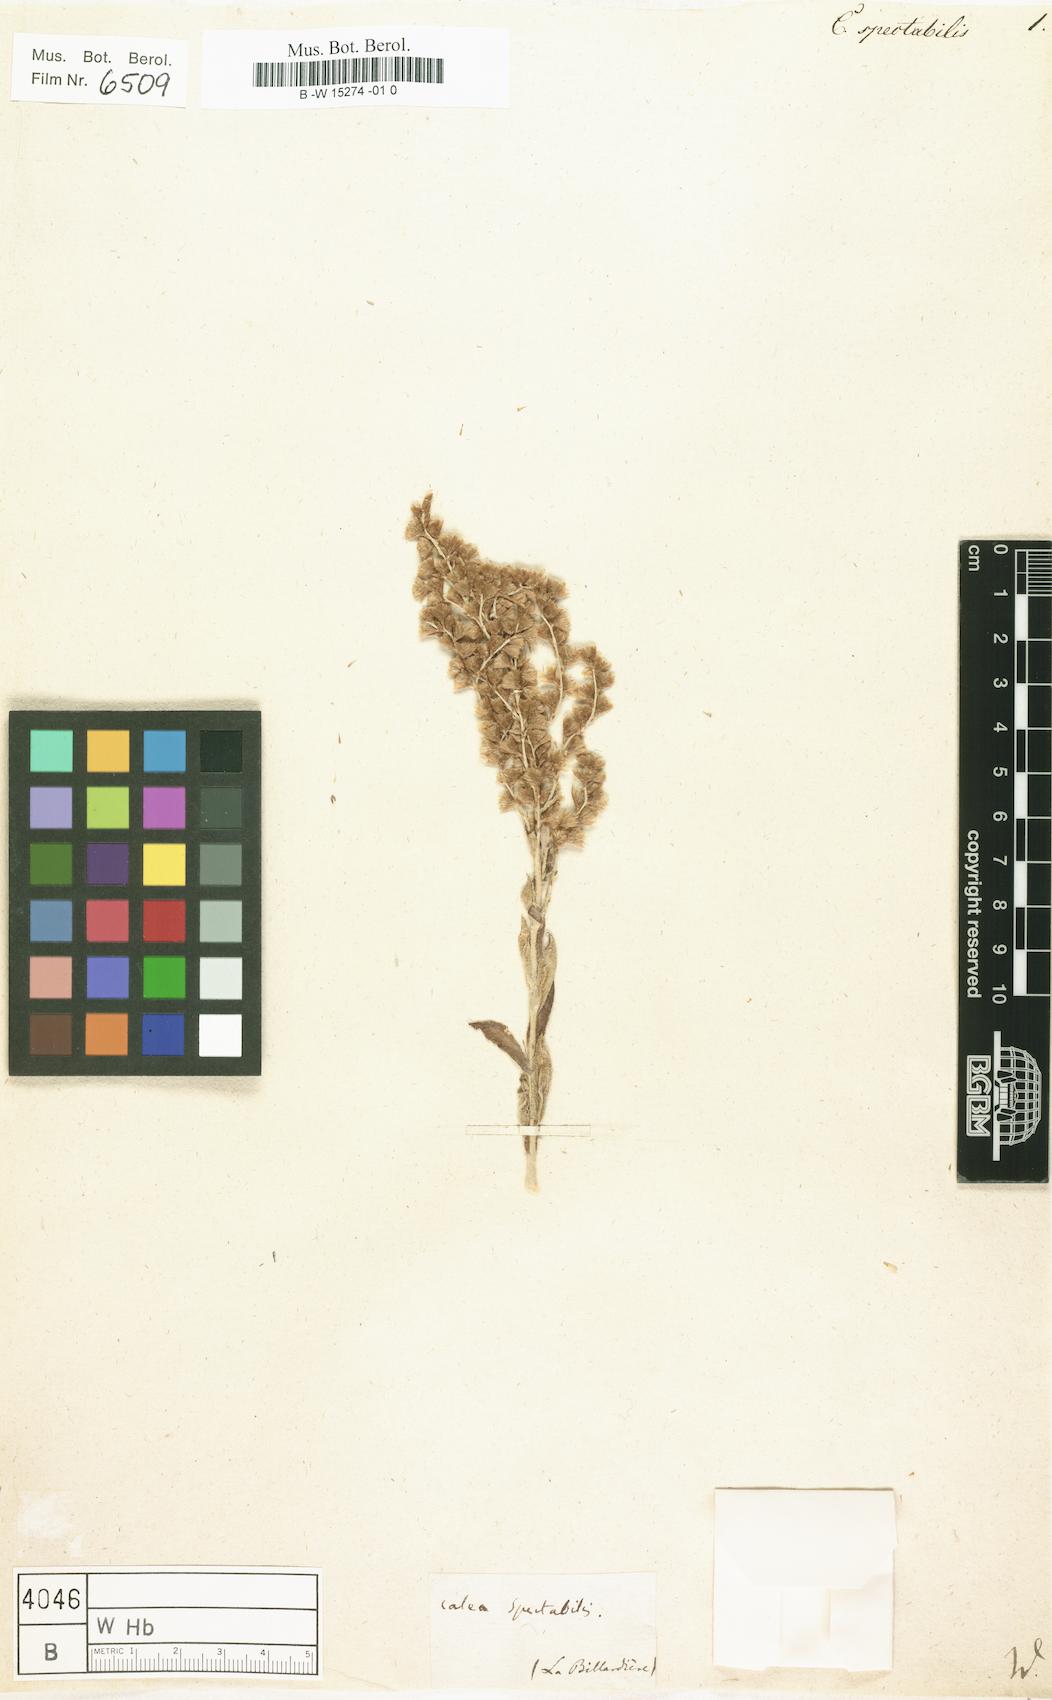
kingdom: Plantae
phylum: Tracheophyta
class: Magnoliopsida
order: Asterales
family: Asteraceae
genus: Apalochlamys
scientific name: Apalochlamys spectabilis
